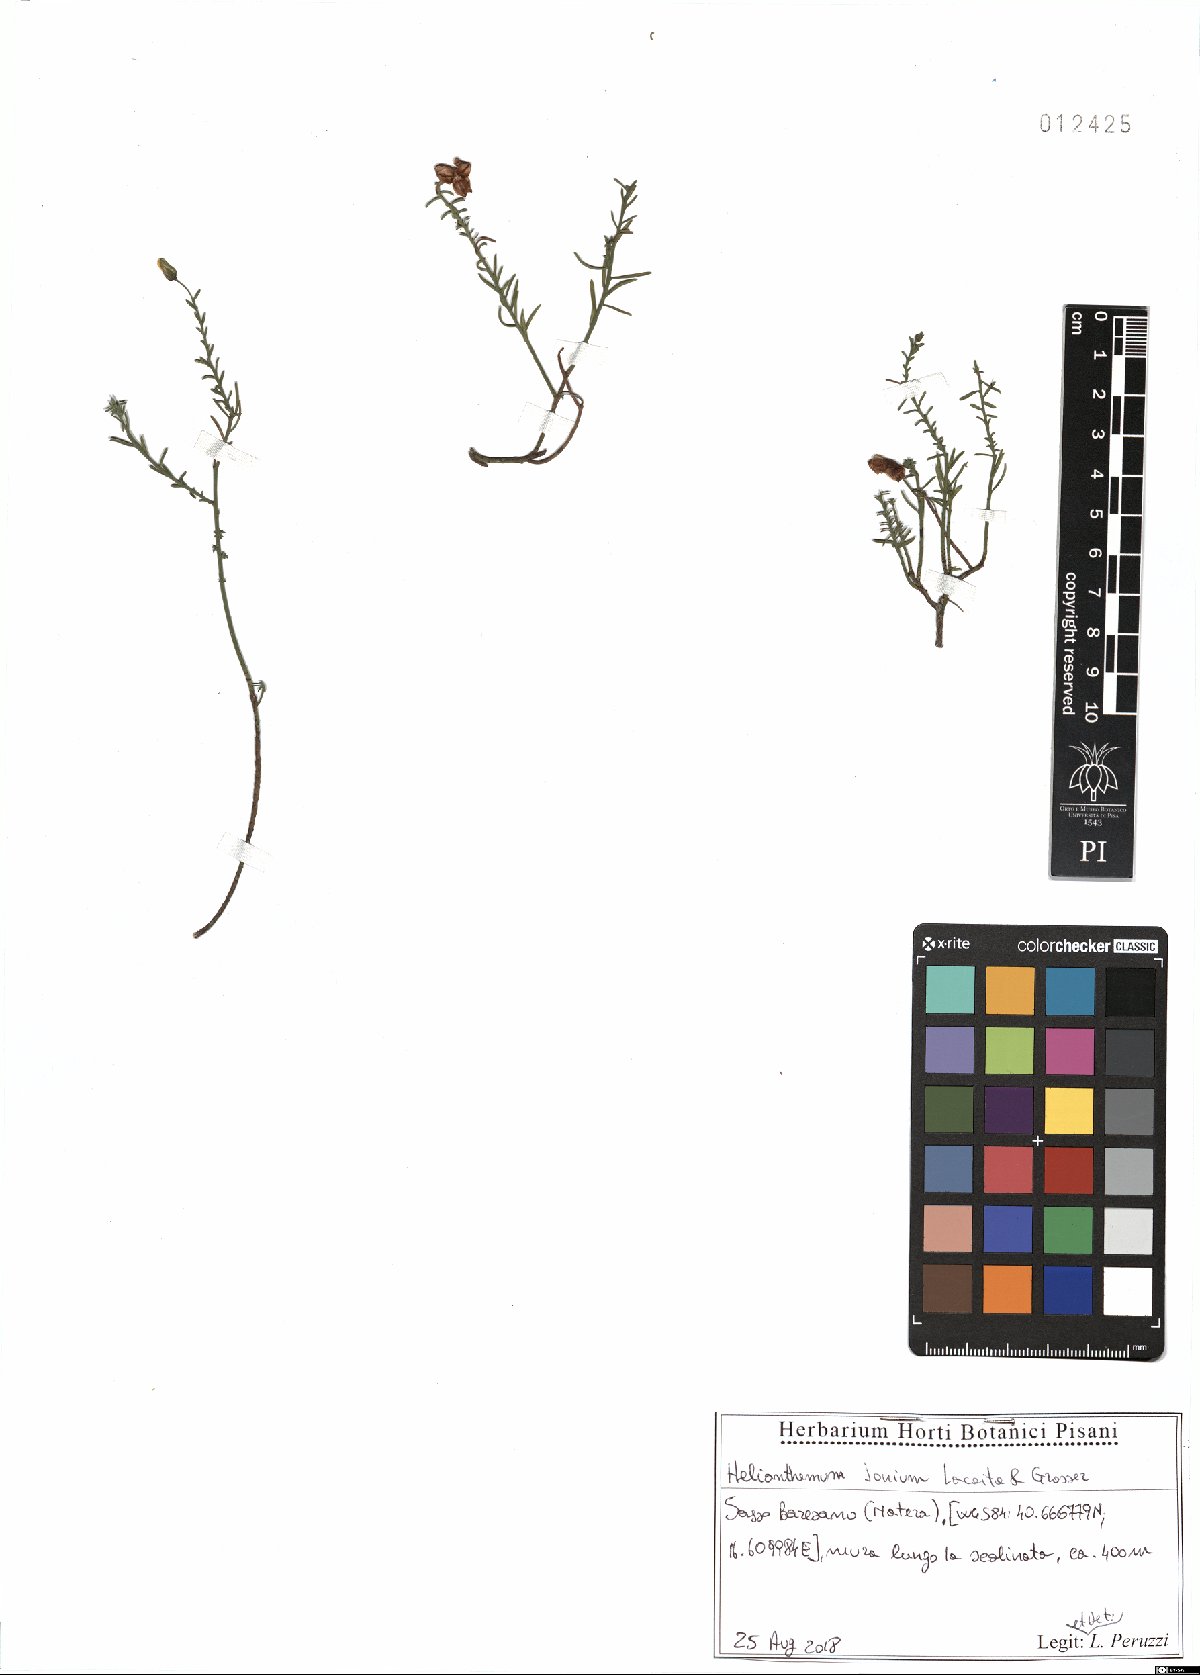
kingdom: Plantae
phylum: Tracheophyta
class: Magnoliopsida
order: Malvales
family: Cistaceae
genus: Helianthemum
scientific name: Helianthemum leptophyllum
